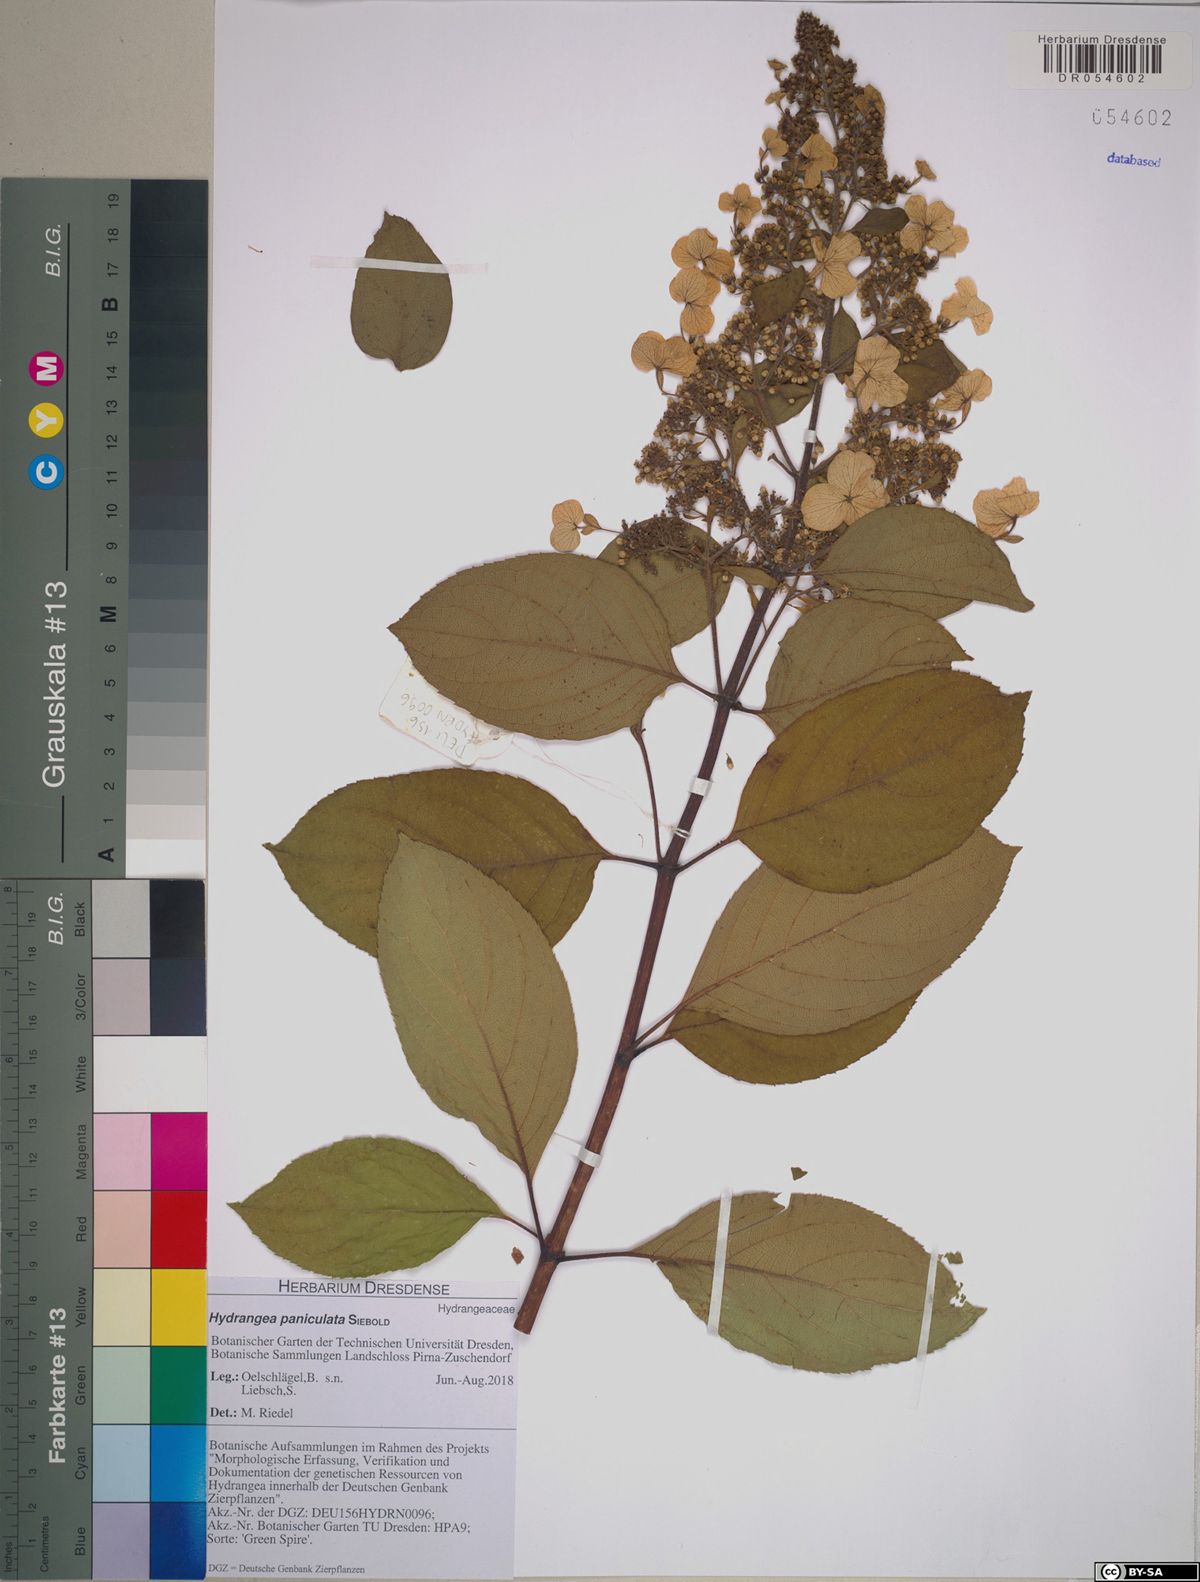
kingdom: Plantae
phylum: Tracheophyta
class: Magnoliopsida
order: Cornales
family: Hydrangeaceae
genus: Hydrangea
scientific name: Hydrangea paniculata
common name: Panicled hydrangea
